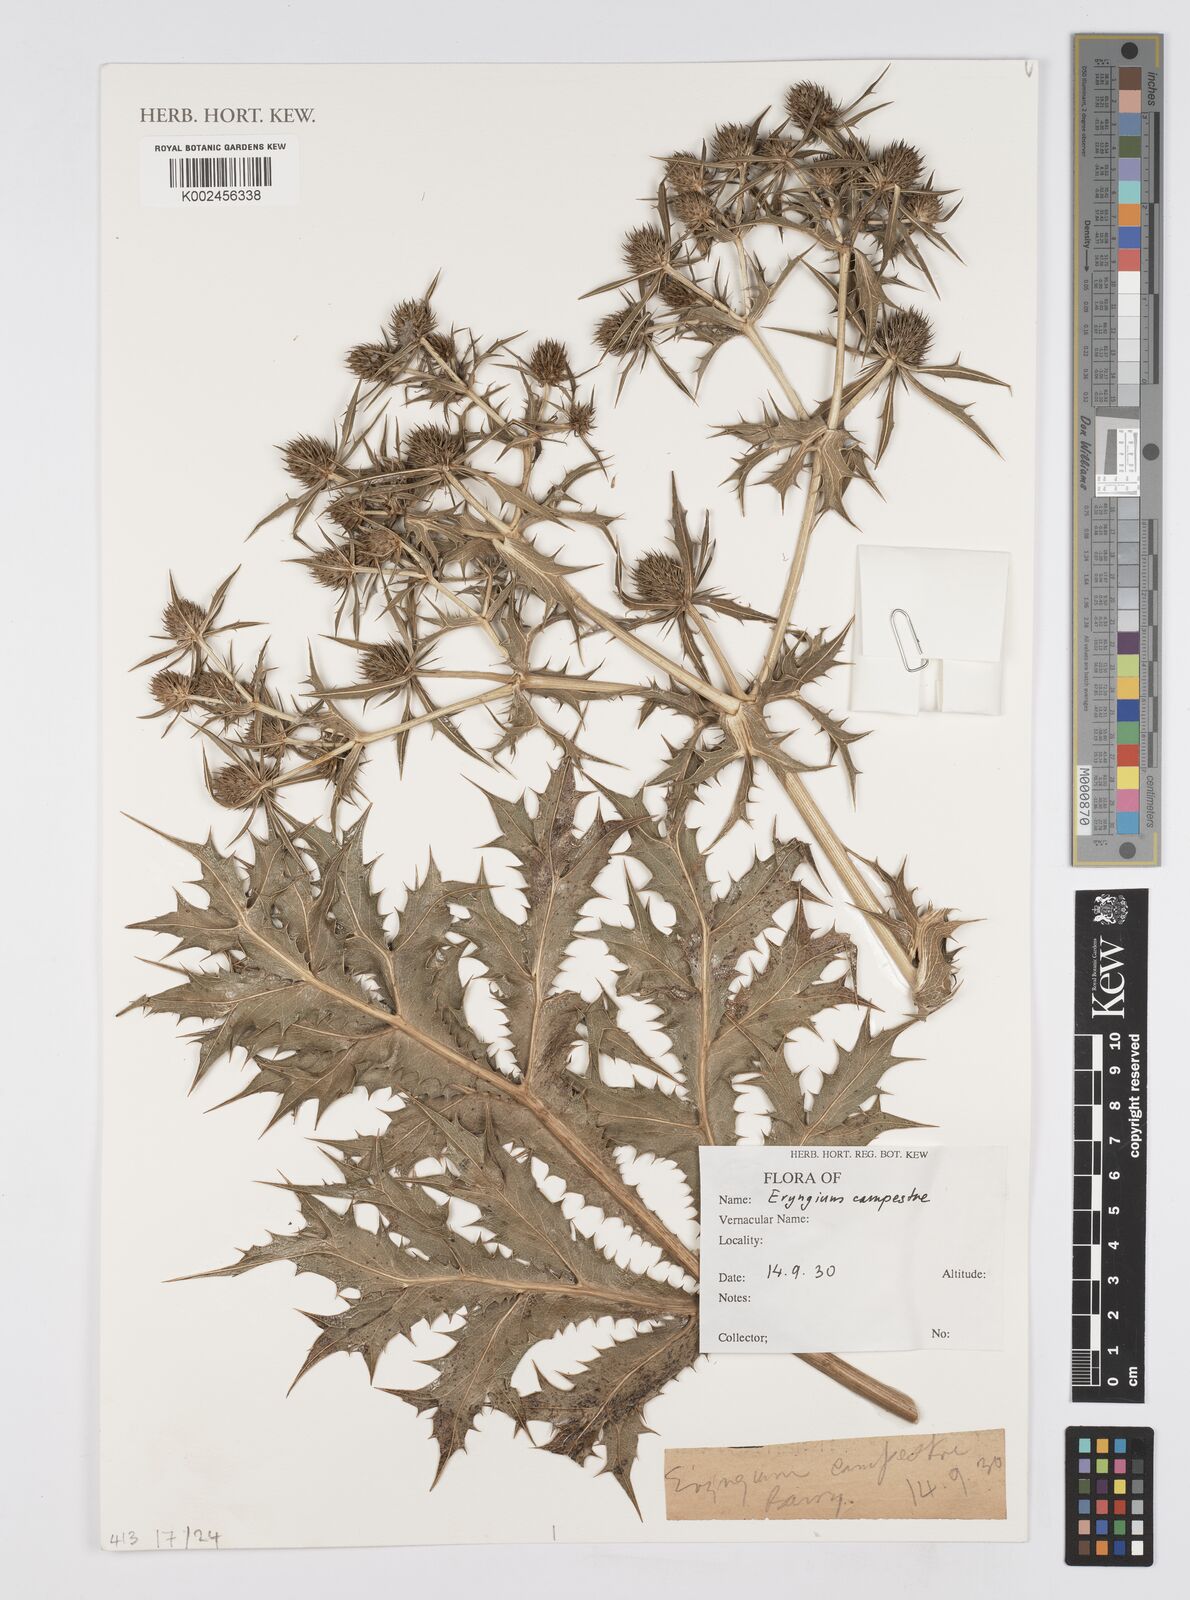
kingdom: Plantae
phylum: Tracheophyta
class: Magnoliopsida
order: Apiales
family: Apiaceae
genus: Eryngium
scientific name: Eryngium campestre
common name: Field eryngo
